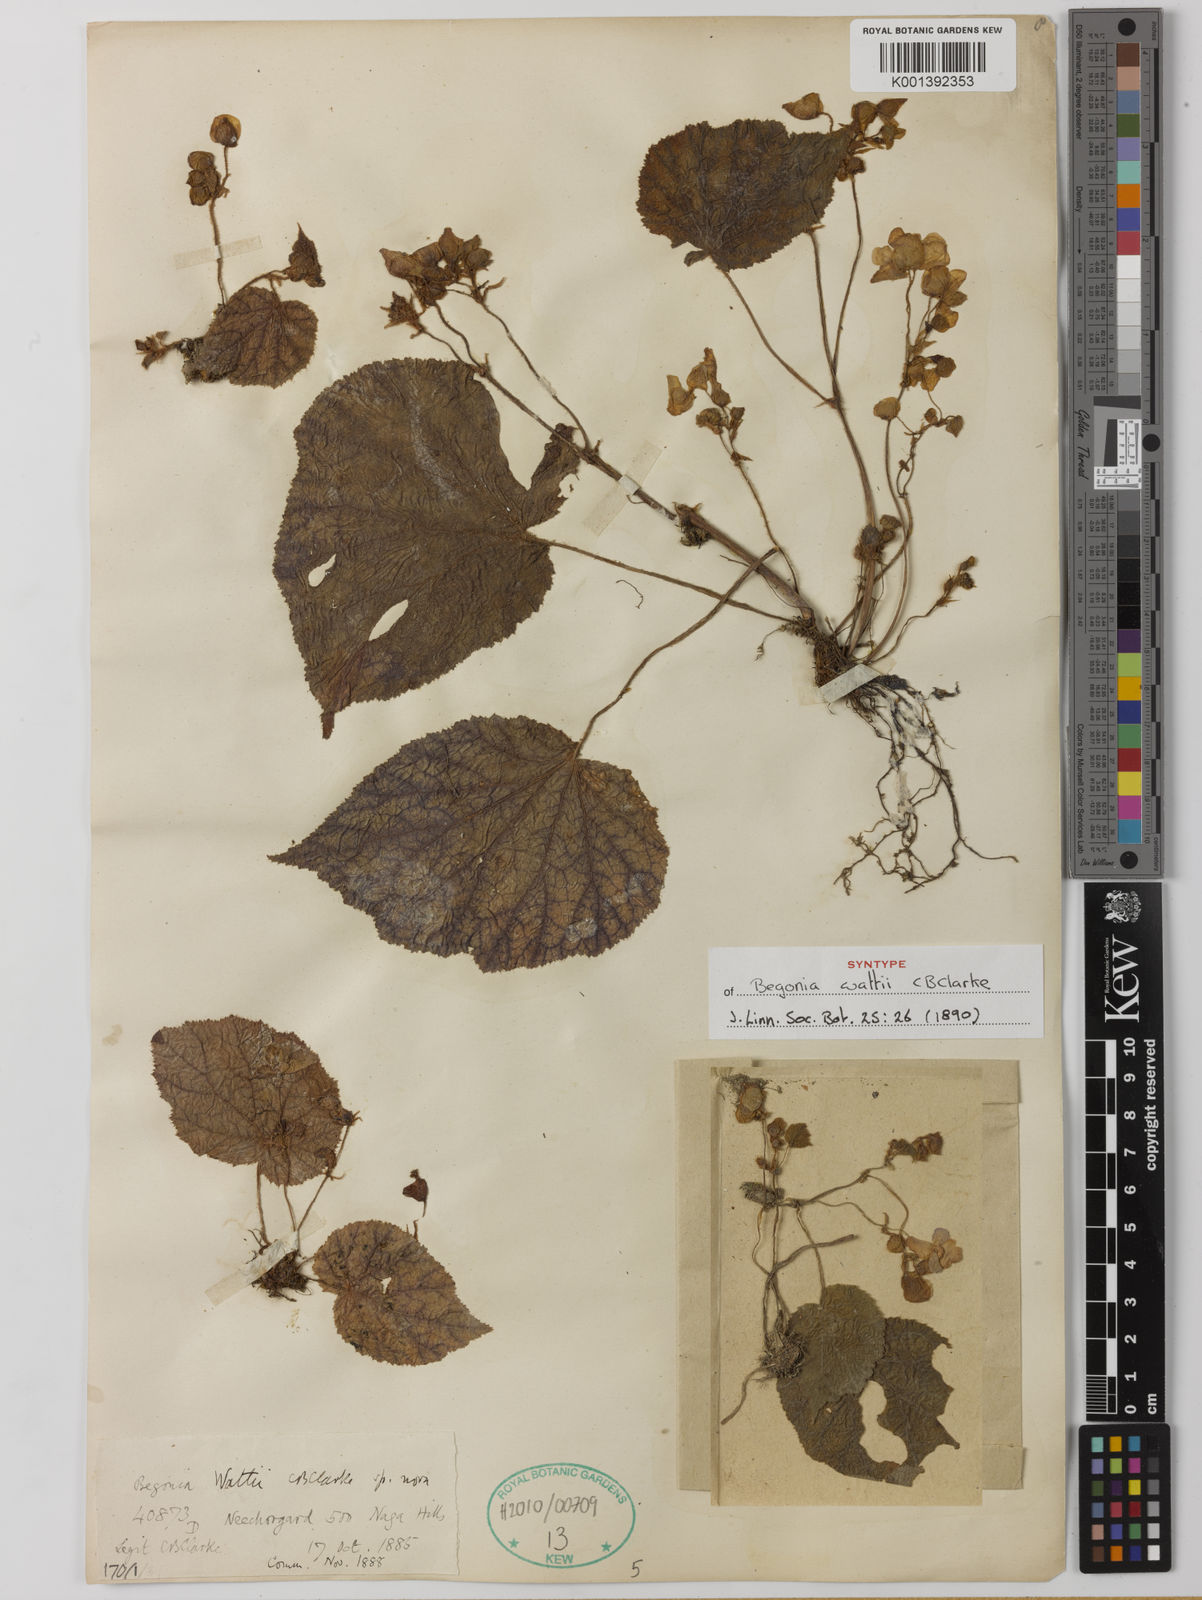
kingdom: Plantae
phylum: Tracheophyta
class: Magnoliopsida
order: Cucurbitales
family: Begoniaceae
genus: Begonia
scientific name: Begonia wattii
